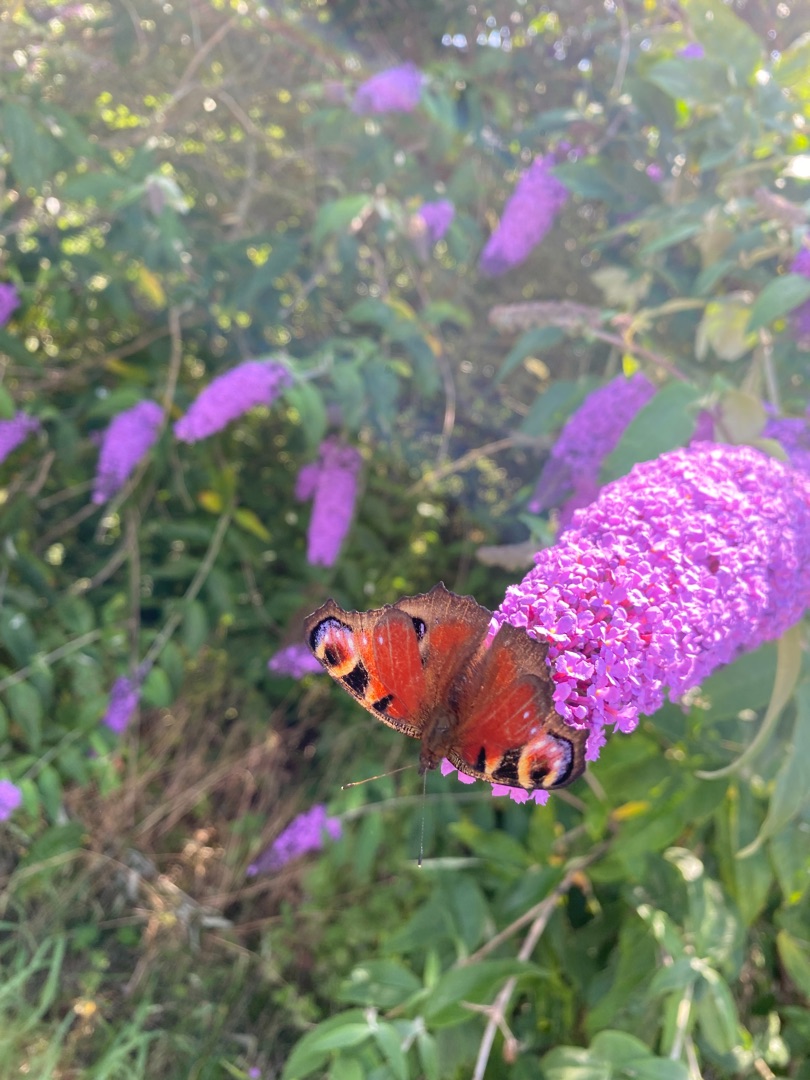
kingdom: Animalia
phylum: Arthropoda
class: Insecta
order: Lepidoptera
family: Nymphalidae
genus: Aglais
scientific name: Aglais io
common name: Dagpåfugleøje
